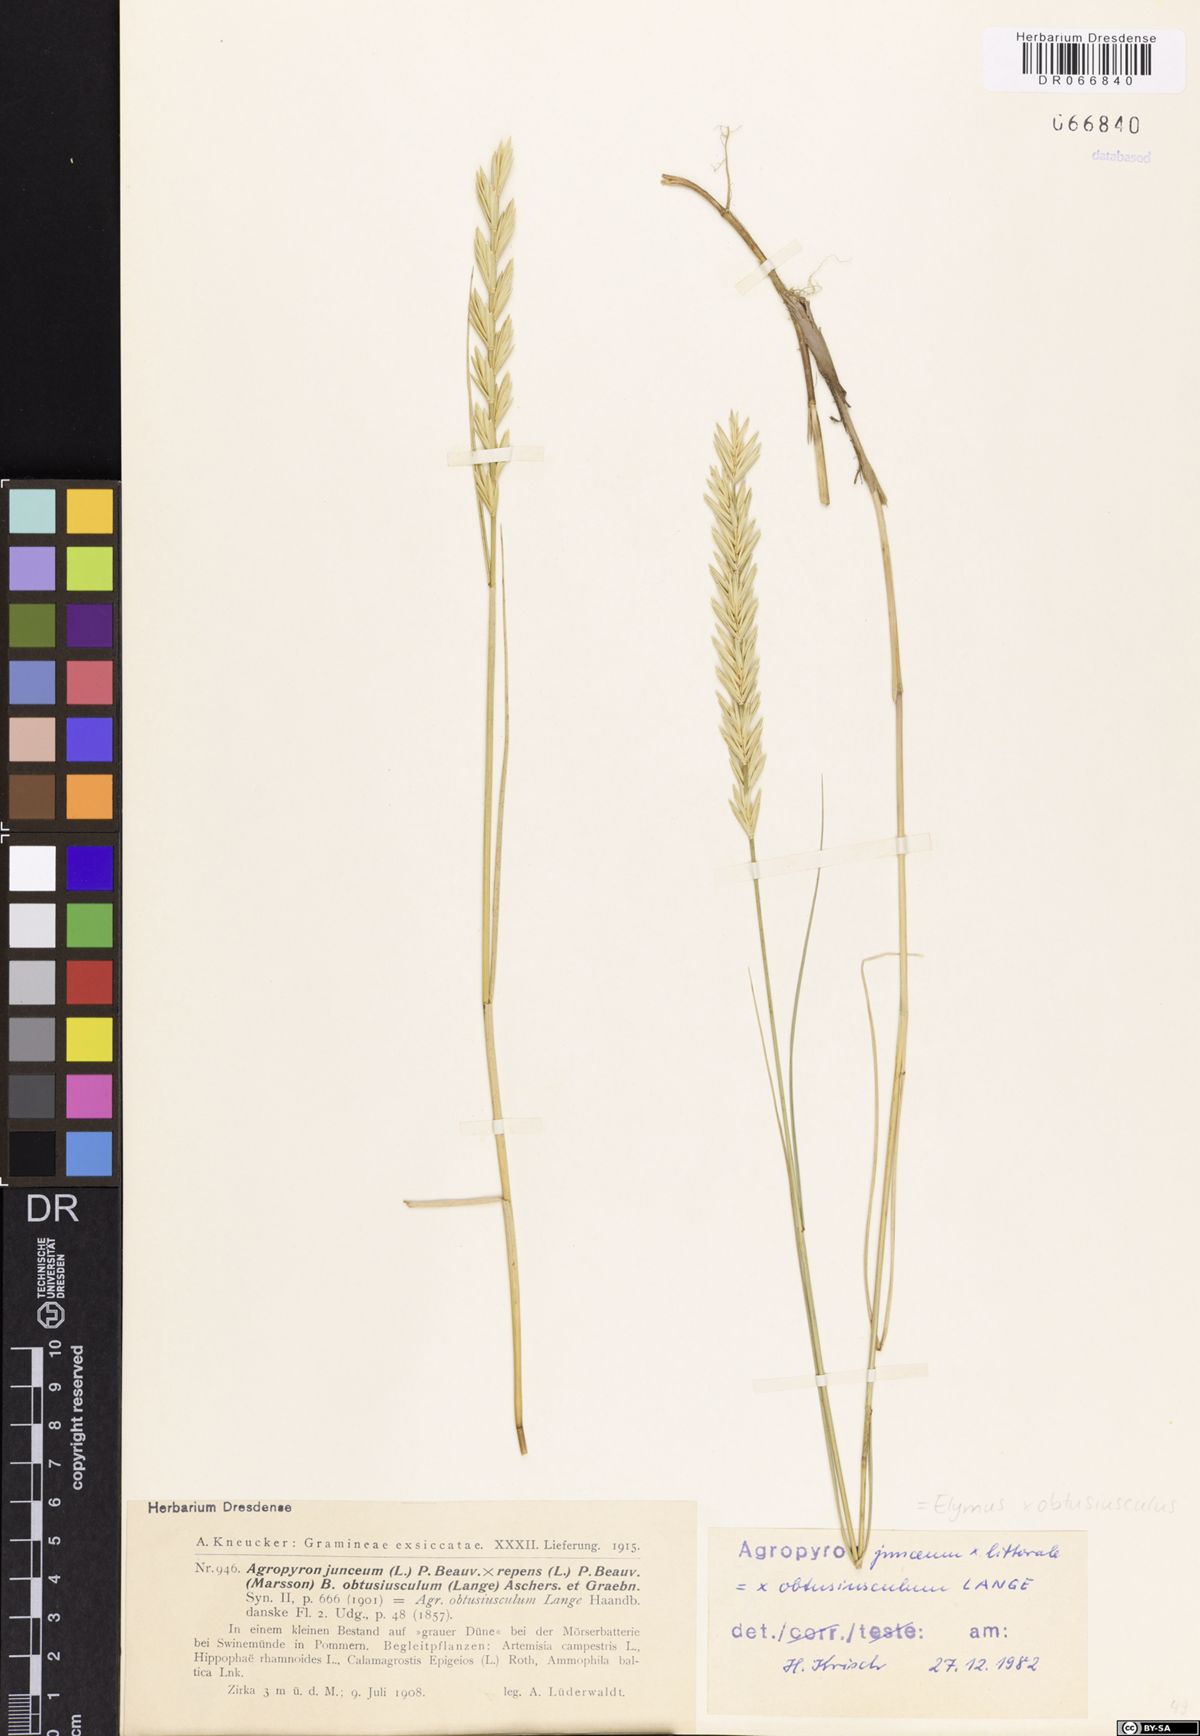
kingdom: Plantae
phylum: Tracheophyta
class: Liliopsida
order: Poales
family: Poaceae
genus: Thinoelymus
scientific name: Thinoelymus obtusiusculus
